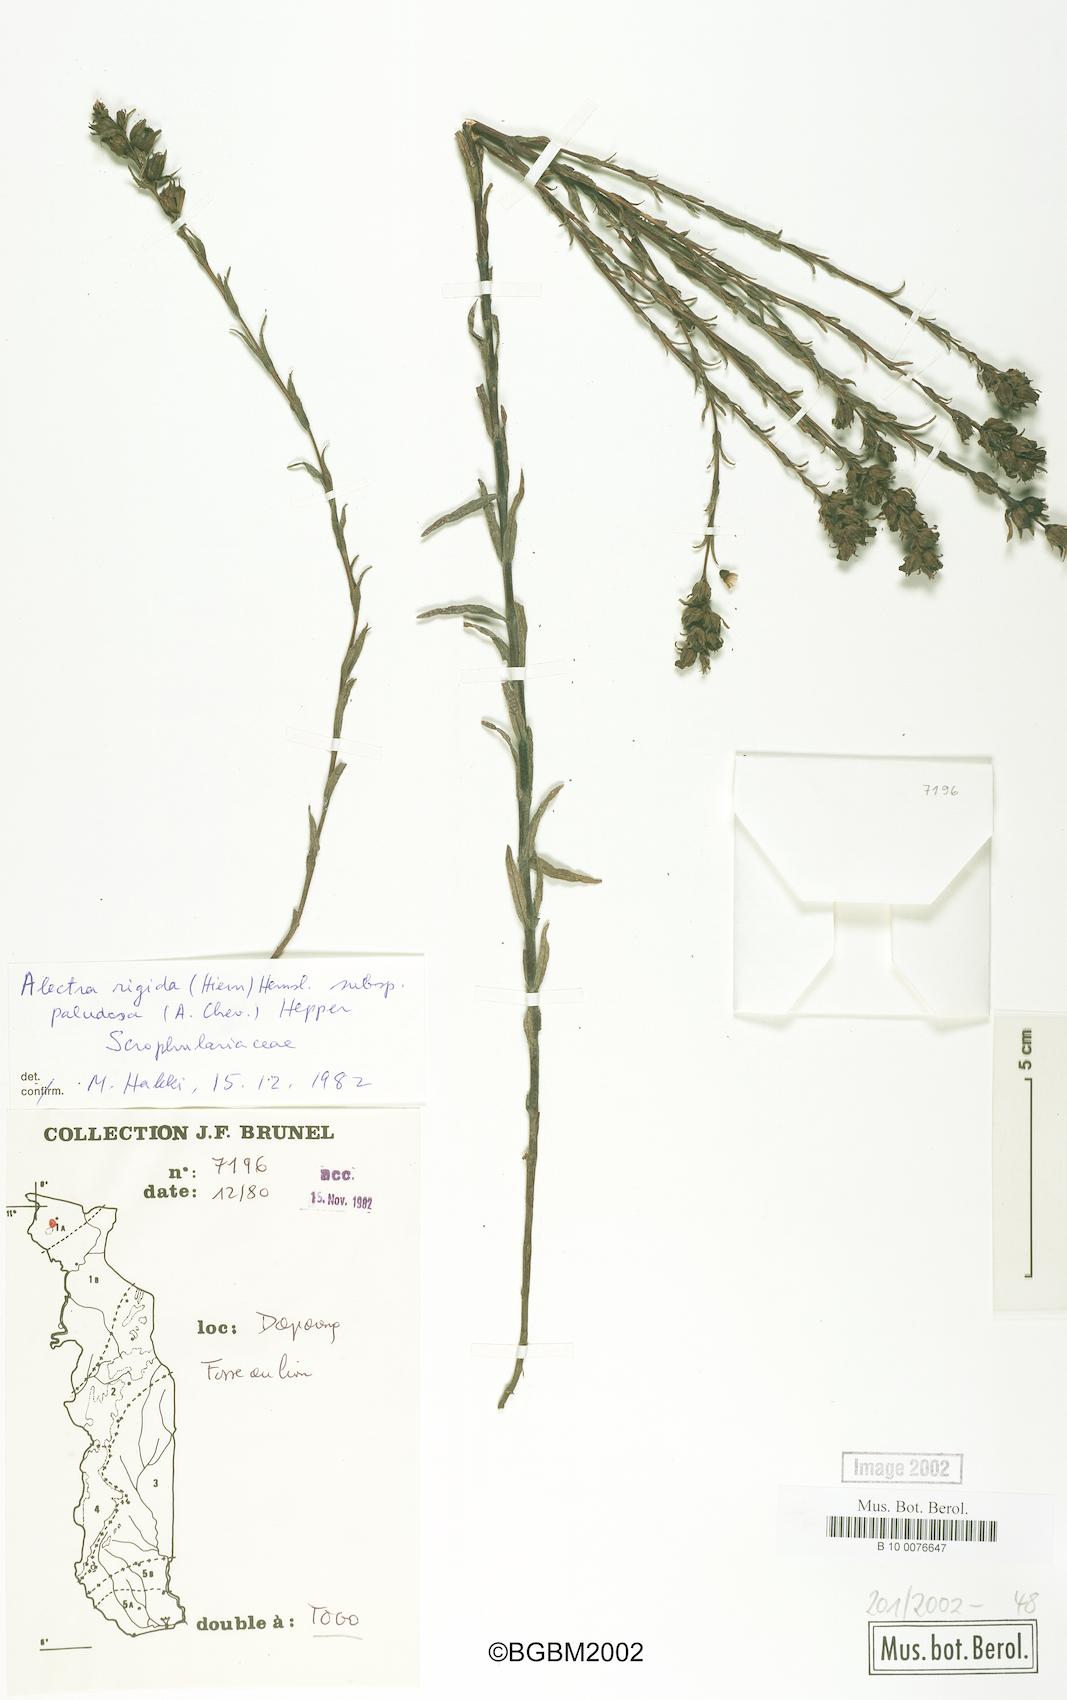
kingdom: Plantae
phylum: Tracheophyta
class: Magnoliopsida
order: Lamiales
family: Orobanchaceae
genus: Alectra
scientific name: Alectra virgata
